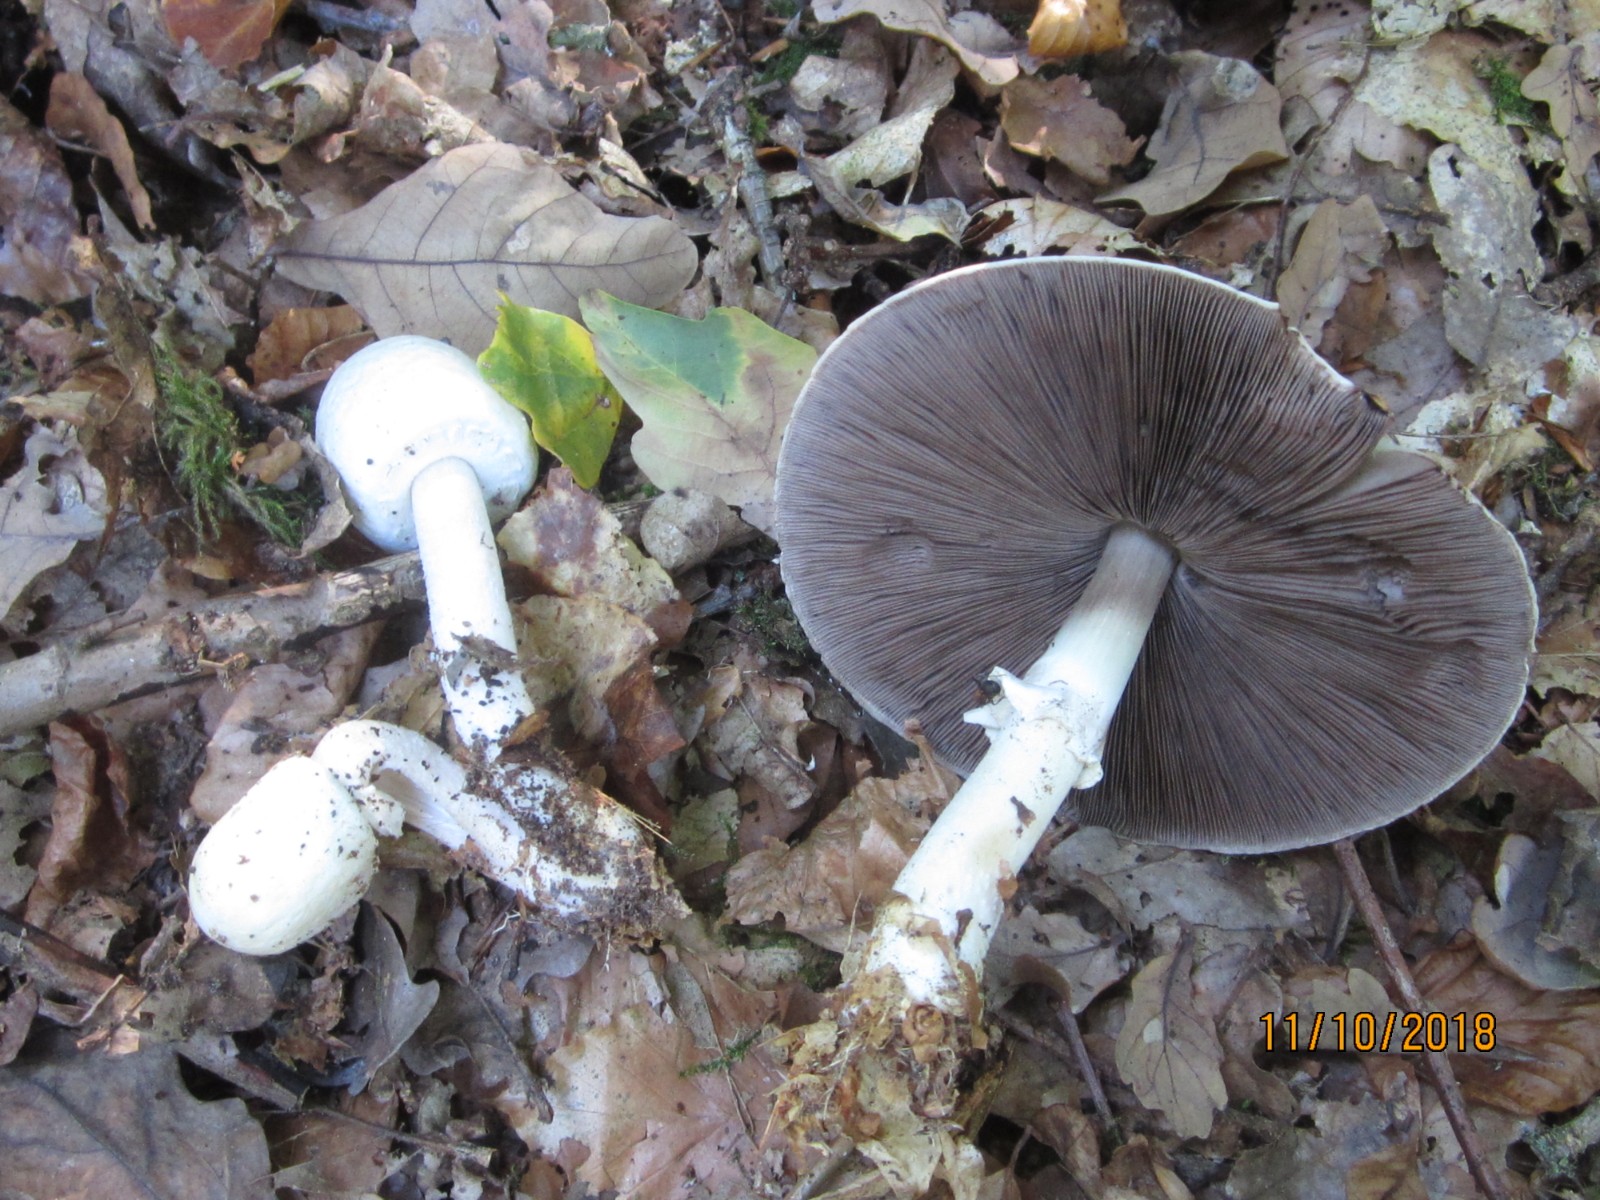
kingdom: Fungi
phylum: Basidiomycota
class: Agaricomycetes
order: Agaricales
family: Agaricaceae
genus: Agaricus
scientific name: Agaricus sylvicola
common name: gulhvid champignon
